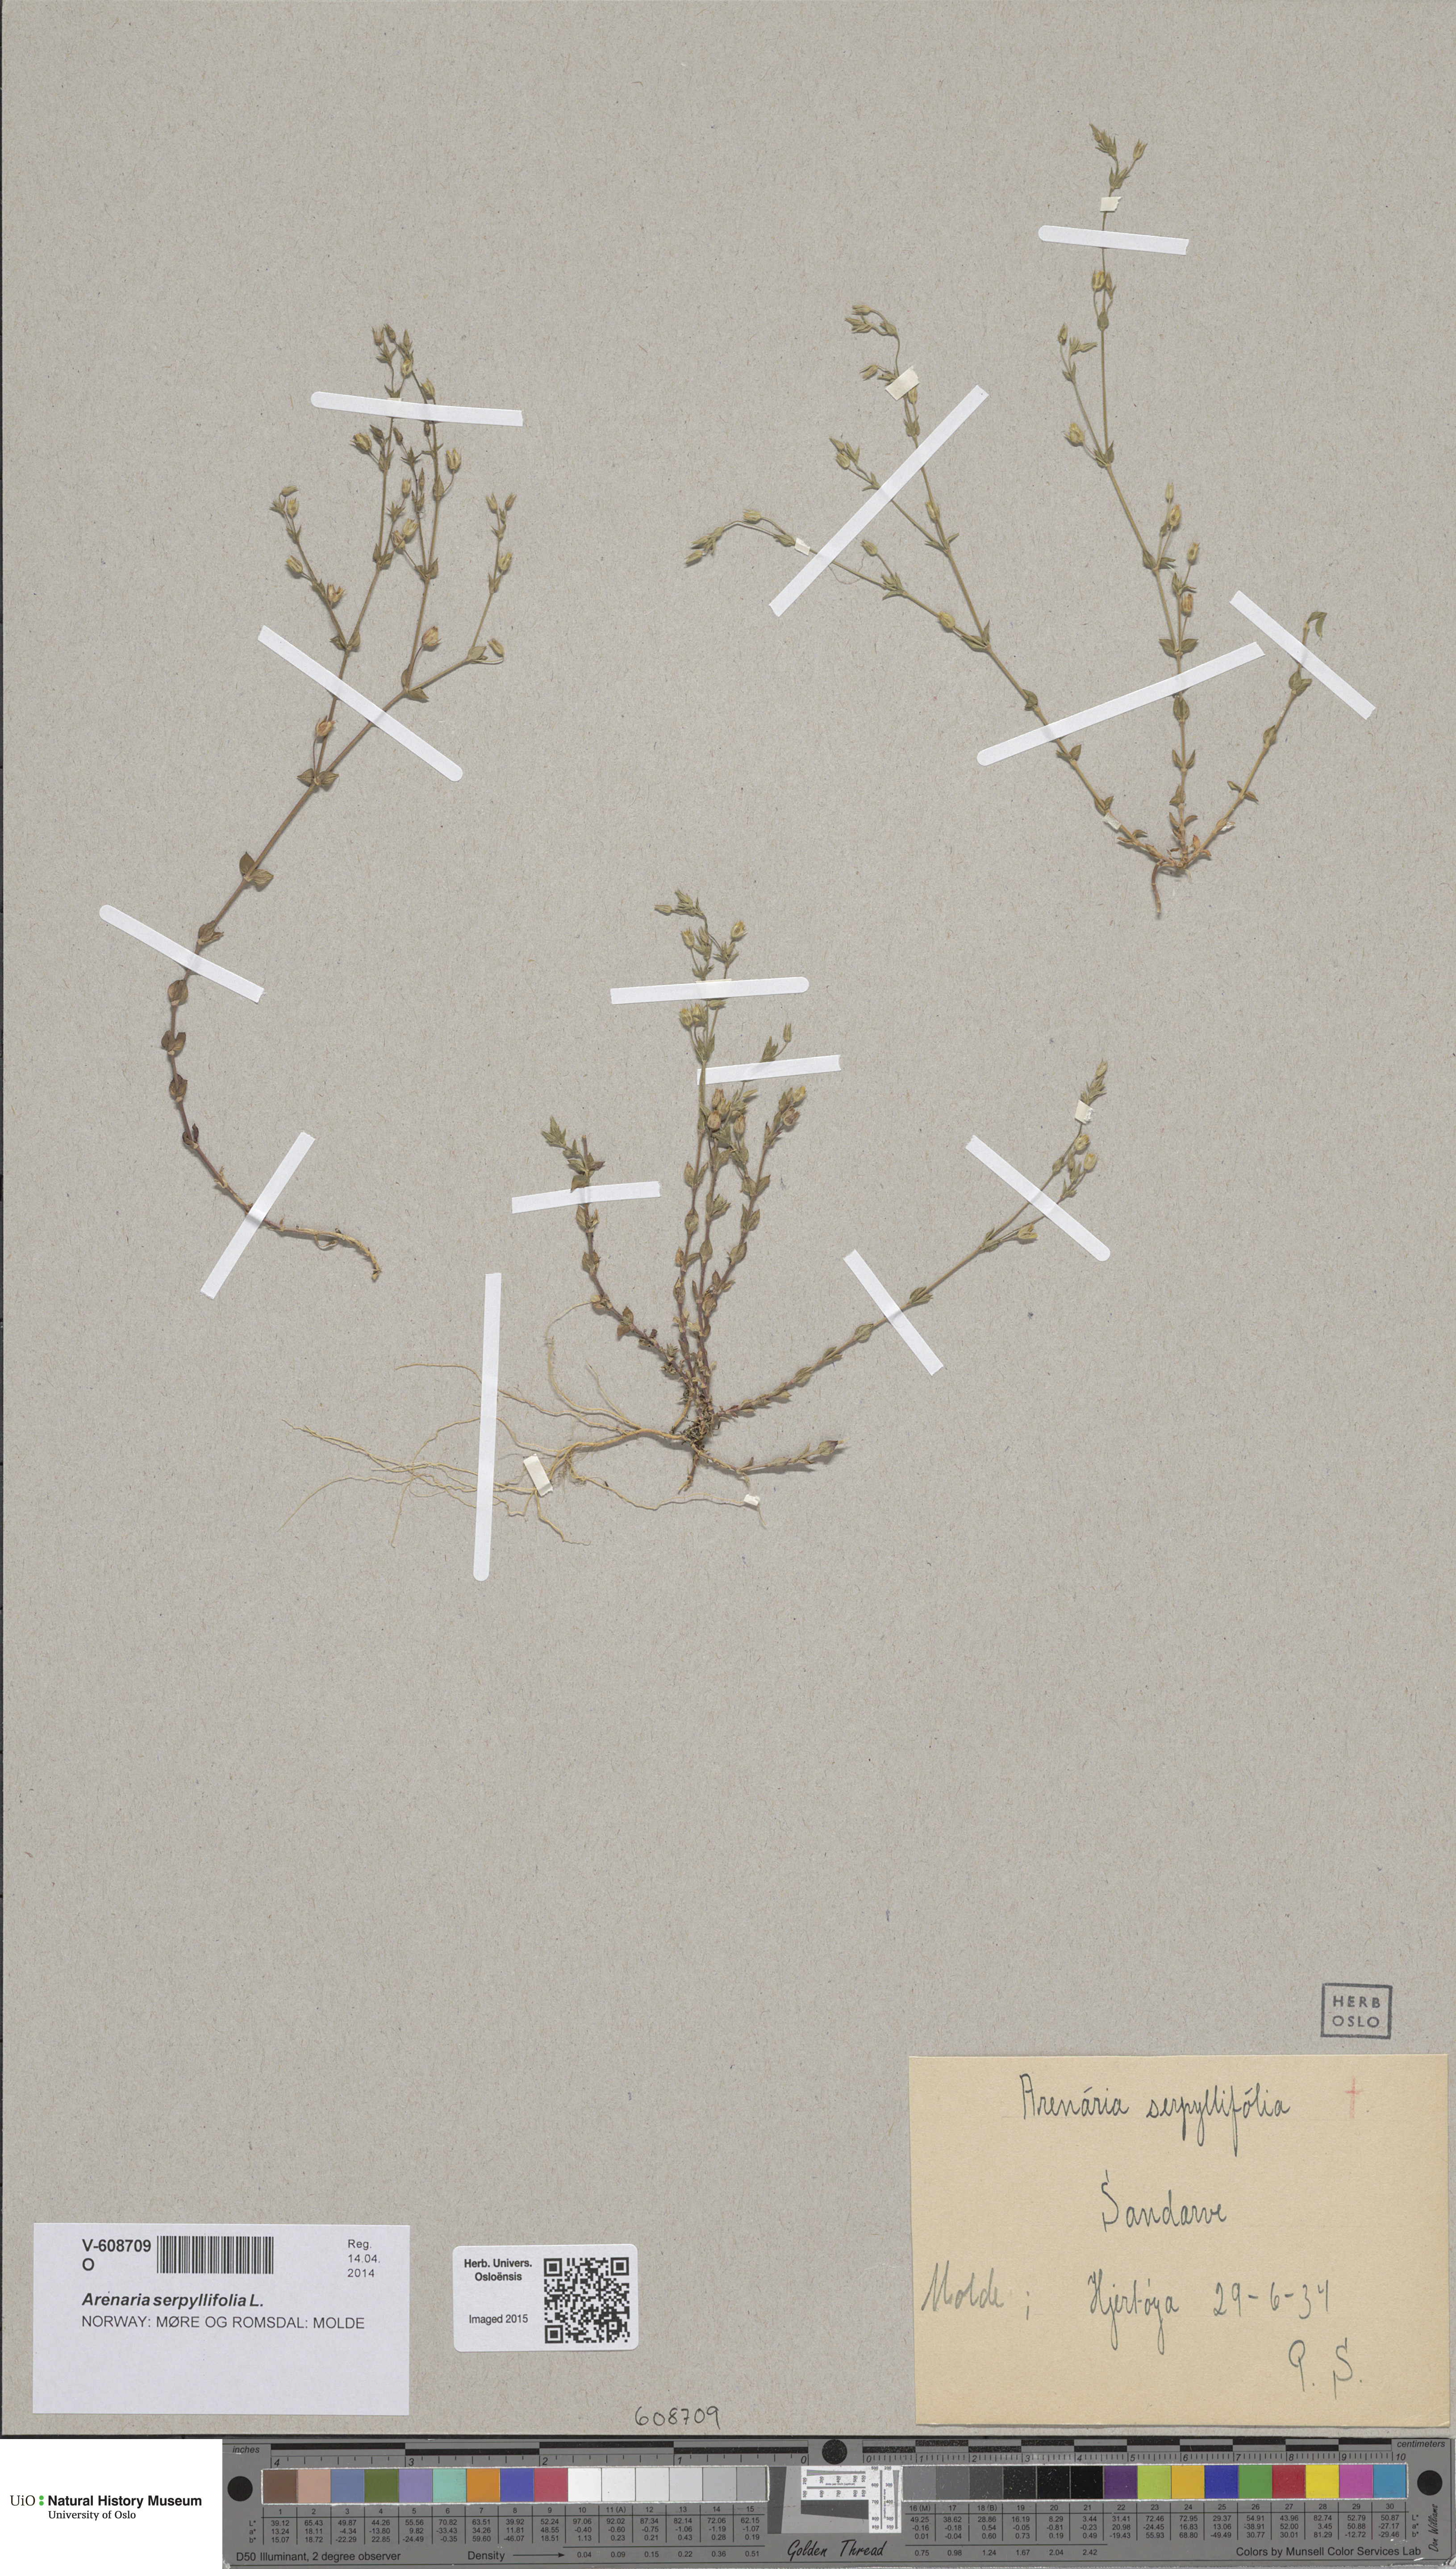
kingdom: Plantae
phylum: Tracheophyta
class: Magnoliopsida
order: Caryophyllales
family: Caryophyllaceae
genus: Arenaria
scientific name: Arenaria serpyllifolia
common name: Thyme-leaved sandwort
